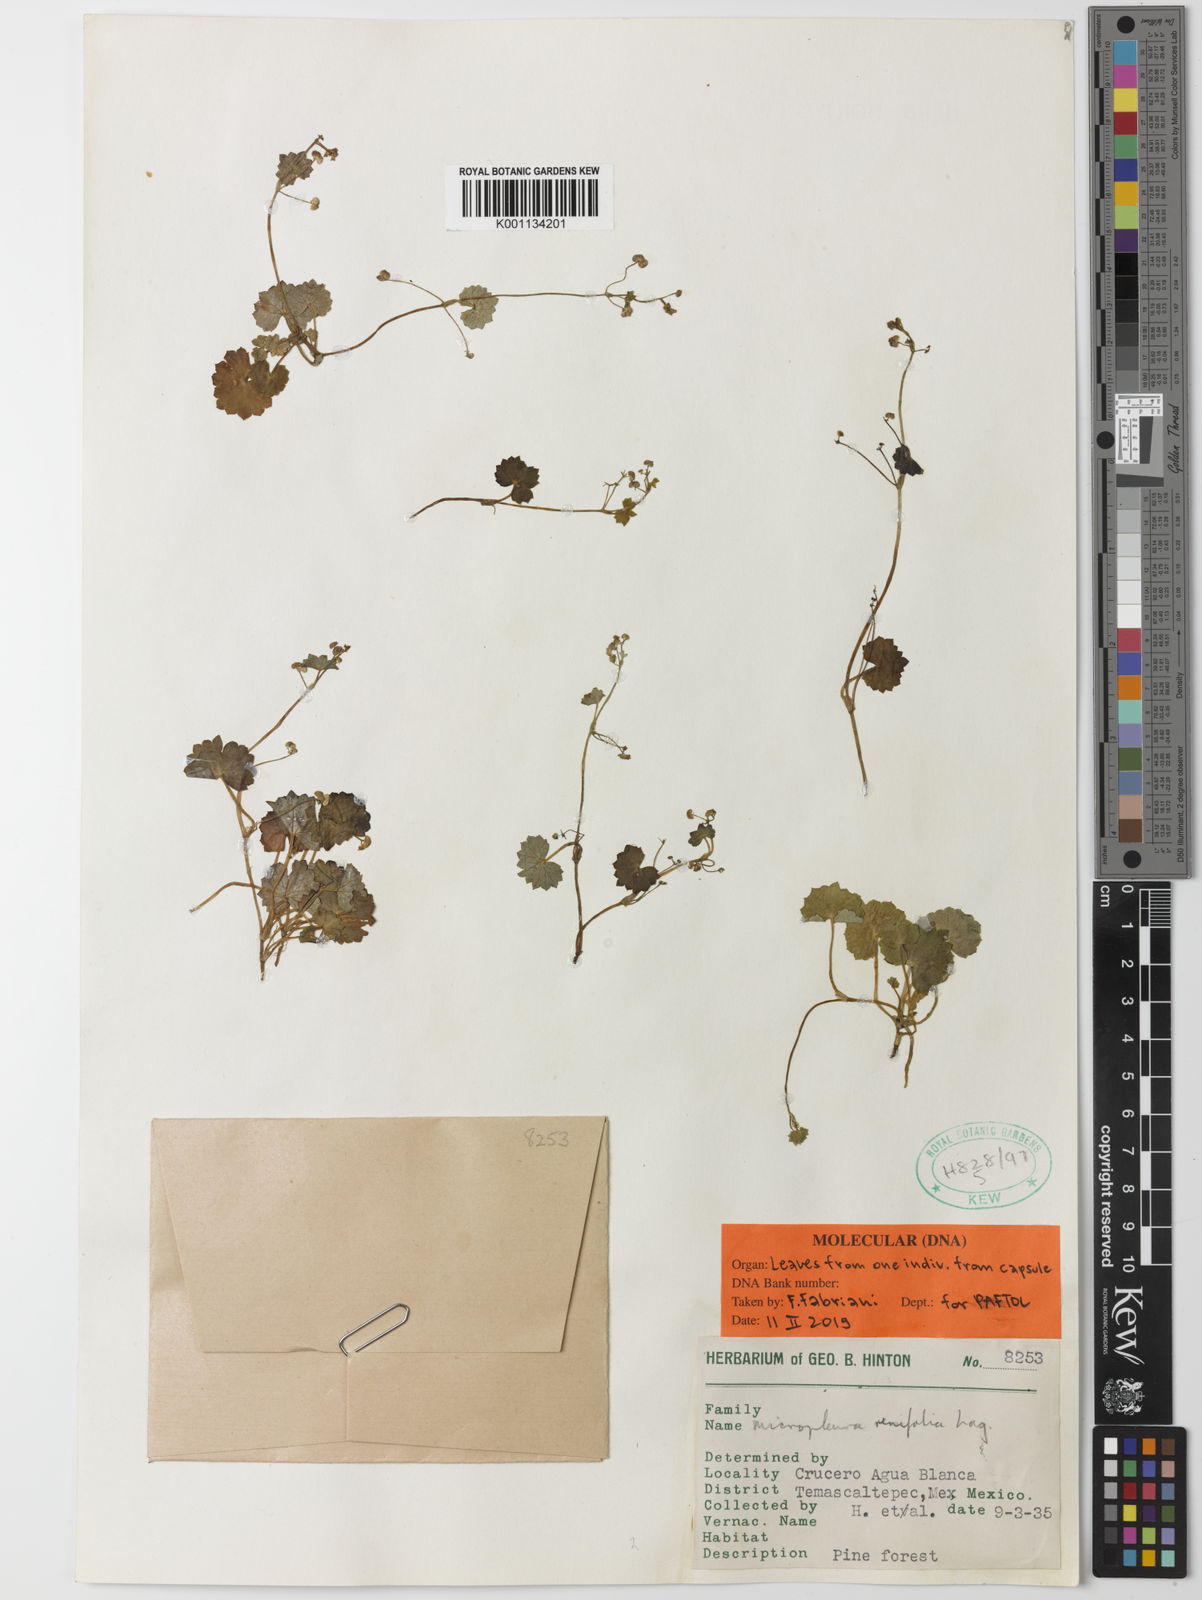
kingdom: Plantae
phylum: Tracheophyta
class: Magnoliopsida
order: Apiales
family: Apiaceae
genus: Micropleura
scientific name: Micropleura renifolia
